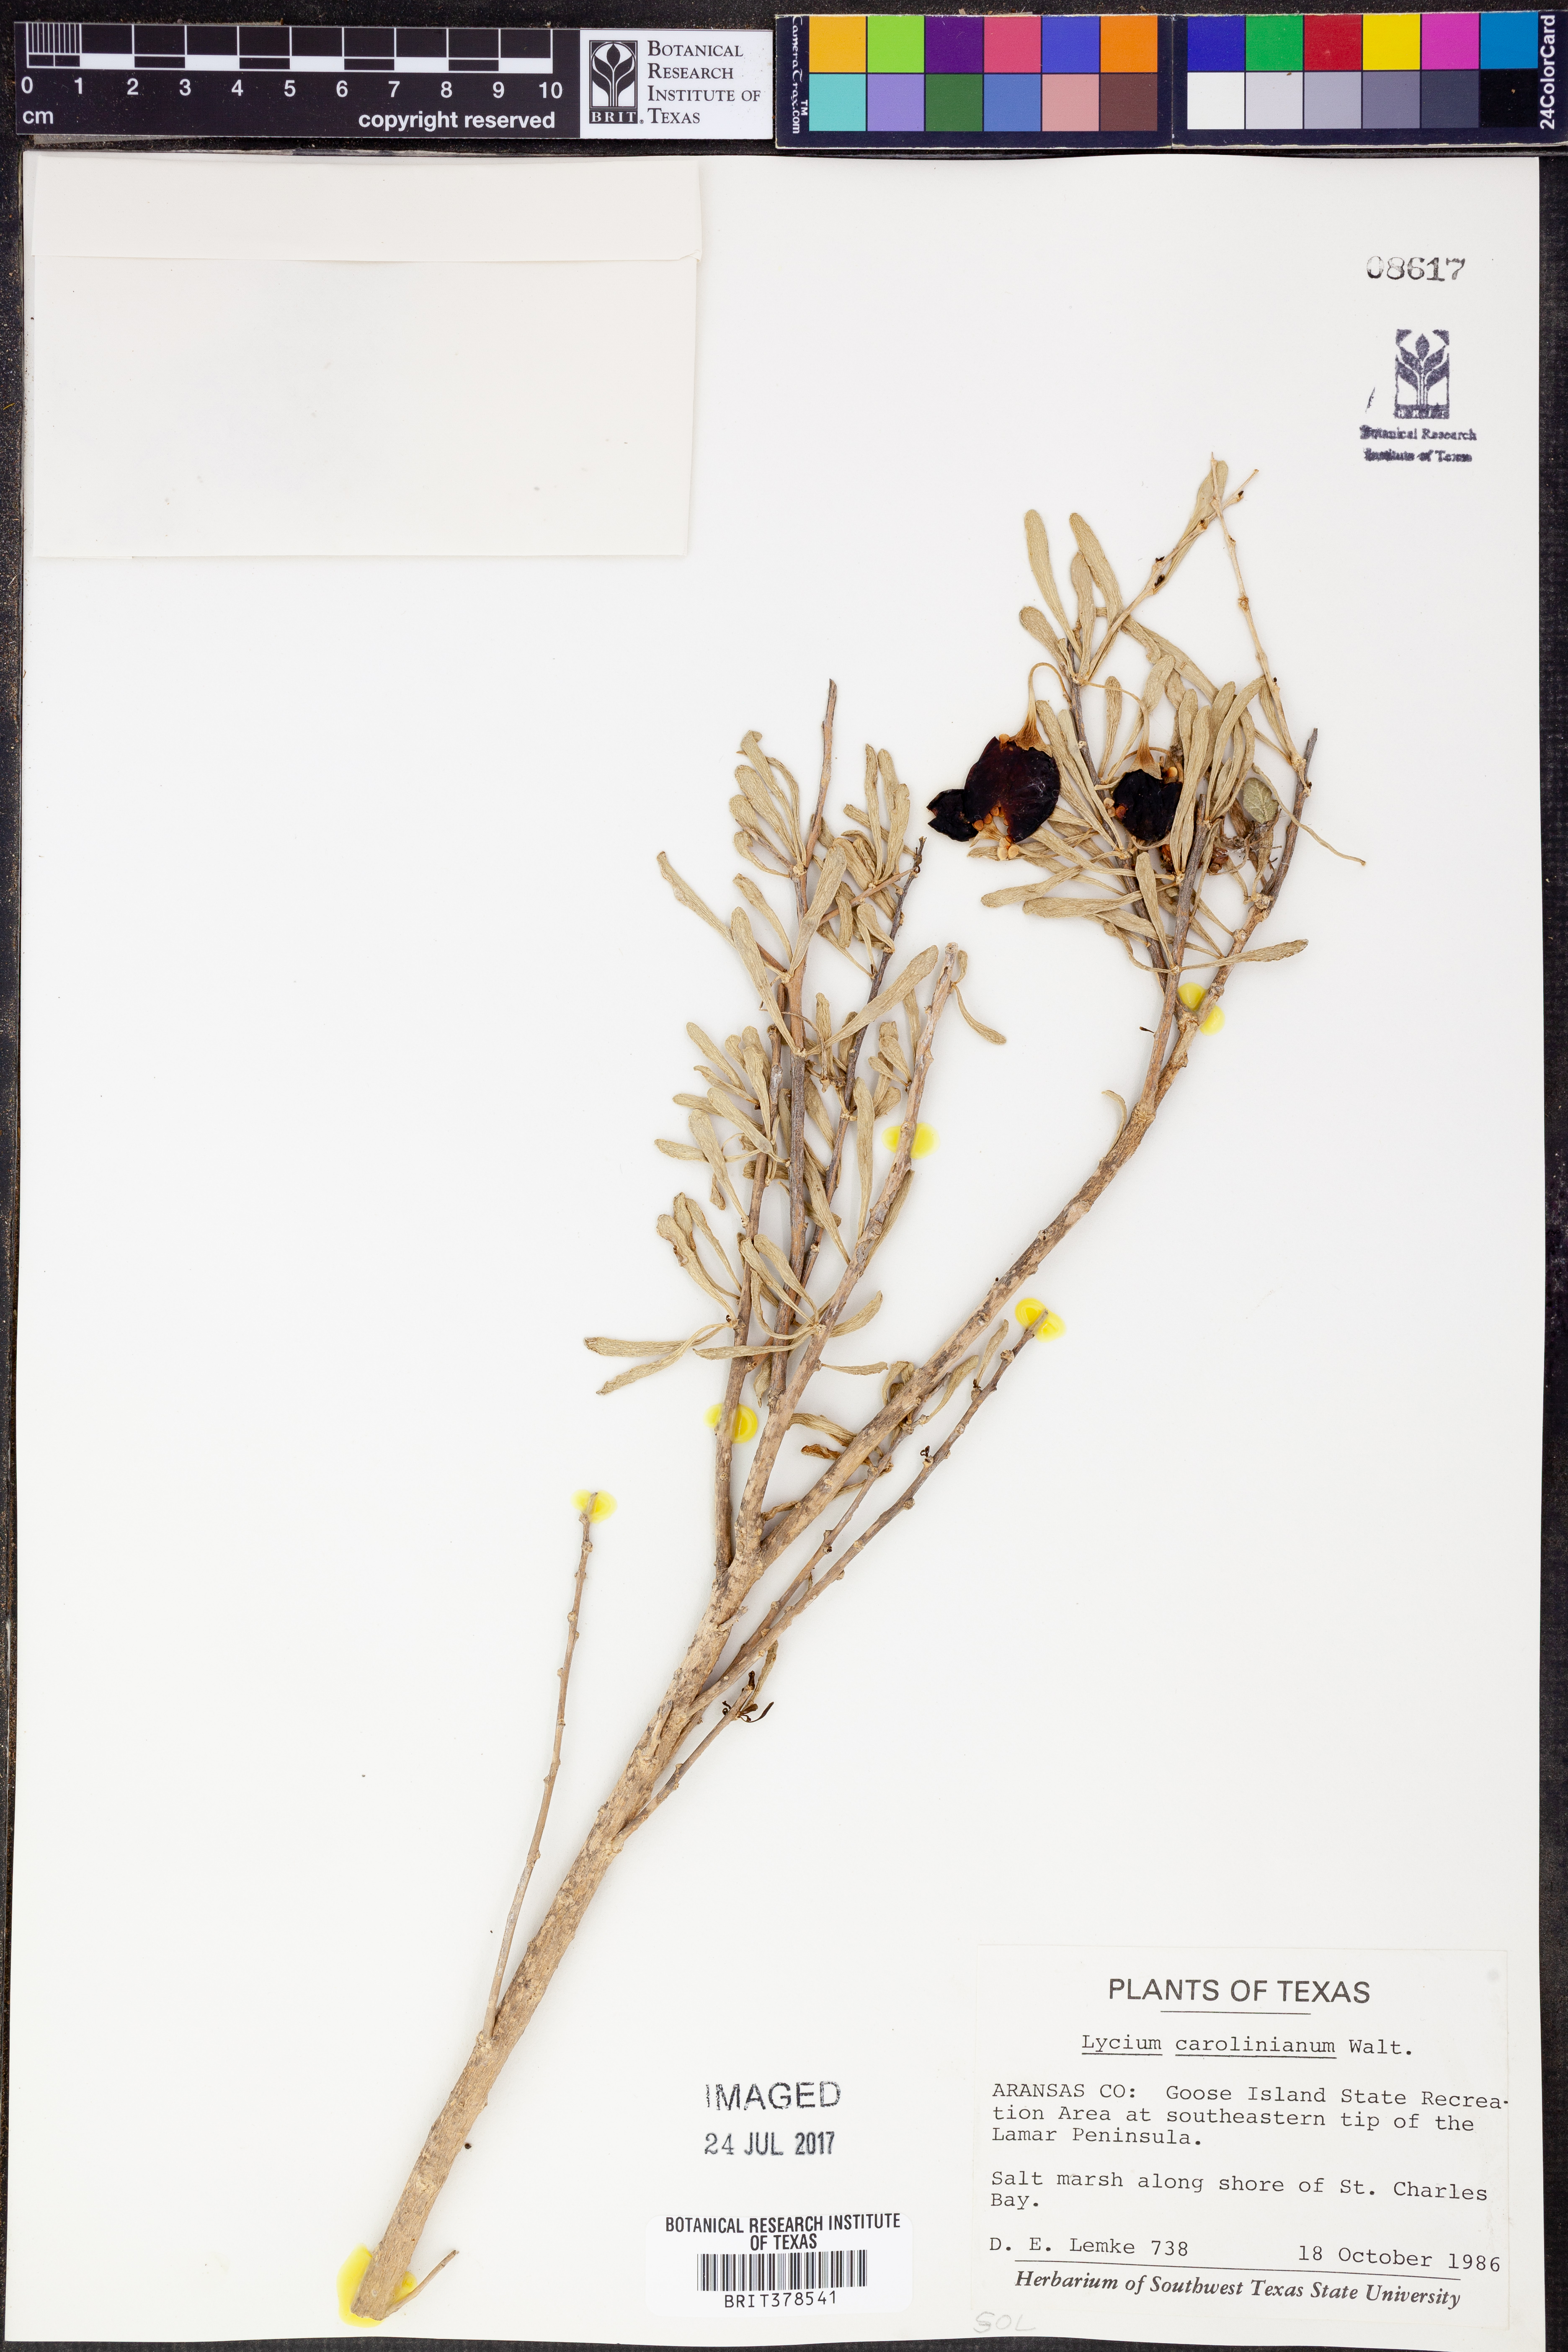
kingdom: Plantae
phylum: Tracheophyta
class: Magnoliopsida
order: Solanales
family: Solanaceae
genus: Lycium
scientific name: Lycium carolinianum
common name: Christmasberry
